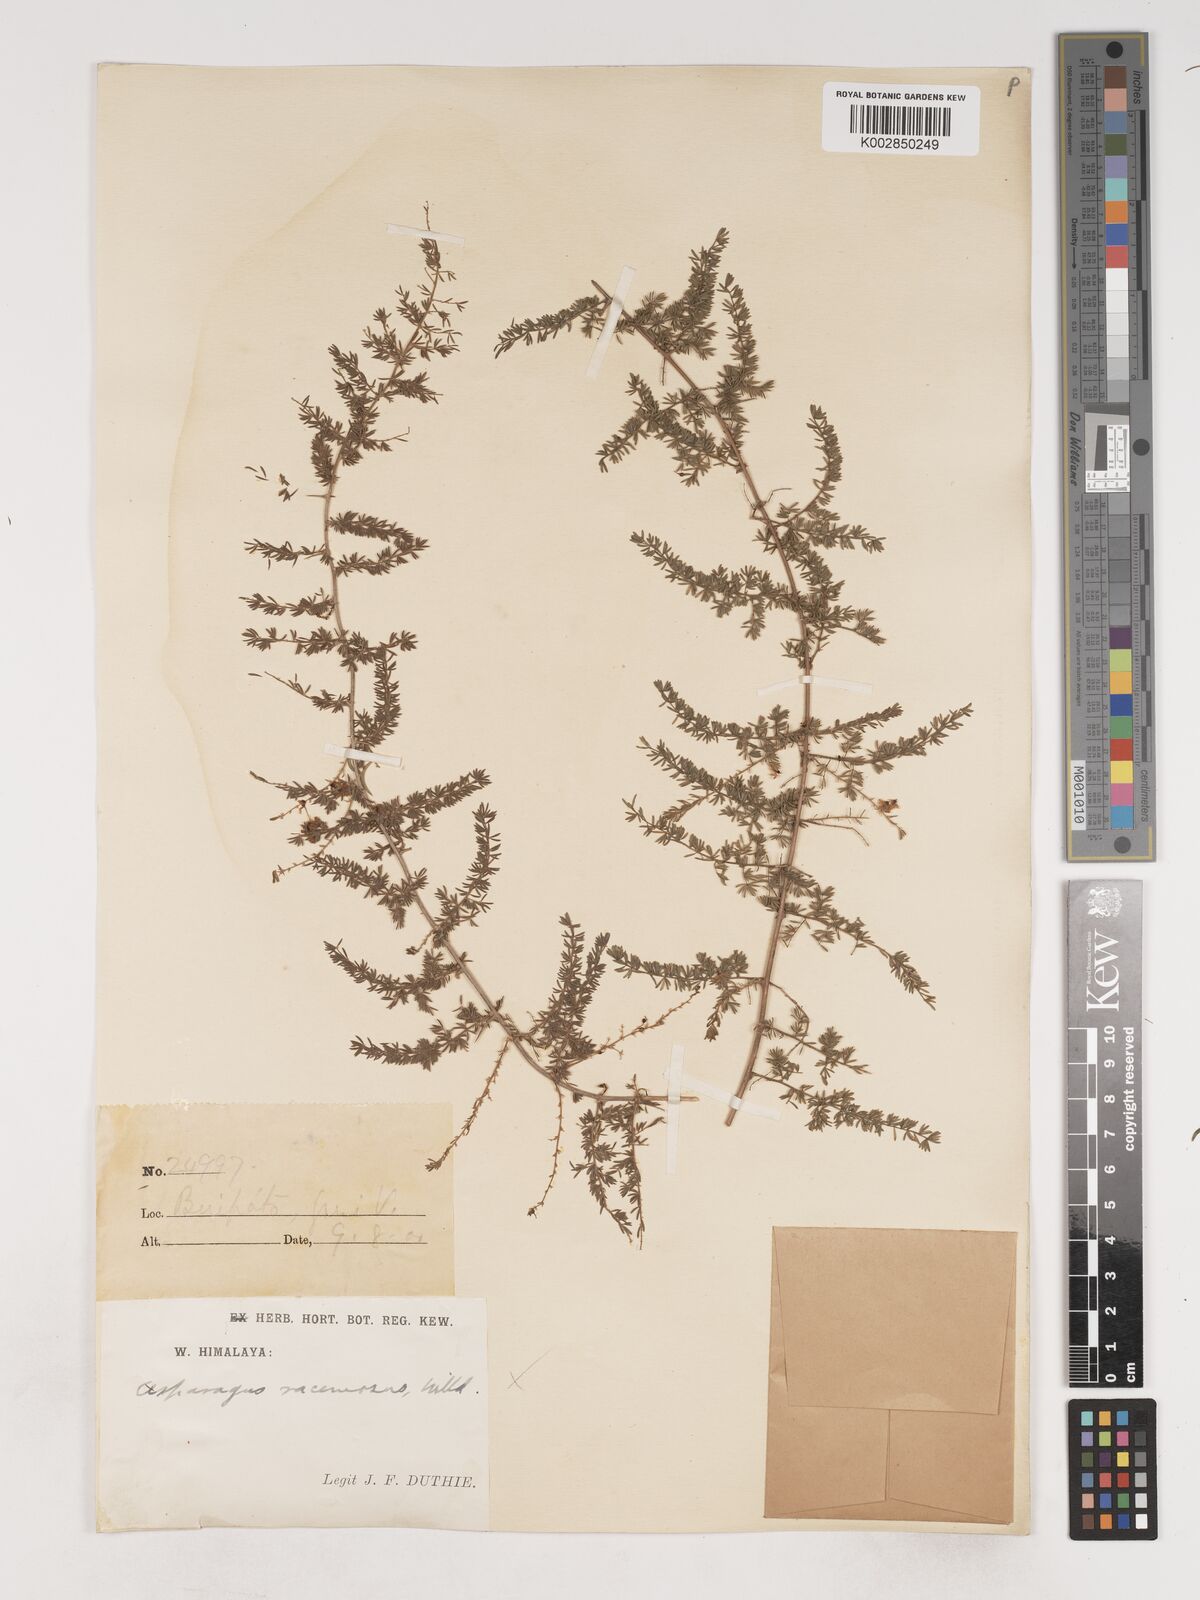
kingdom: Plantae
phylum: Tracheophyta
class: Liliopsida
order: Asparagales
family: Asparagaceae
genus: Asparagus
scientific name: Asparagus curillus
